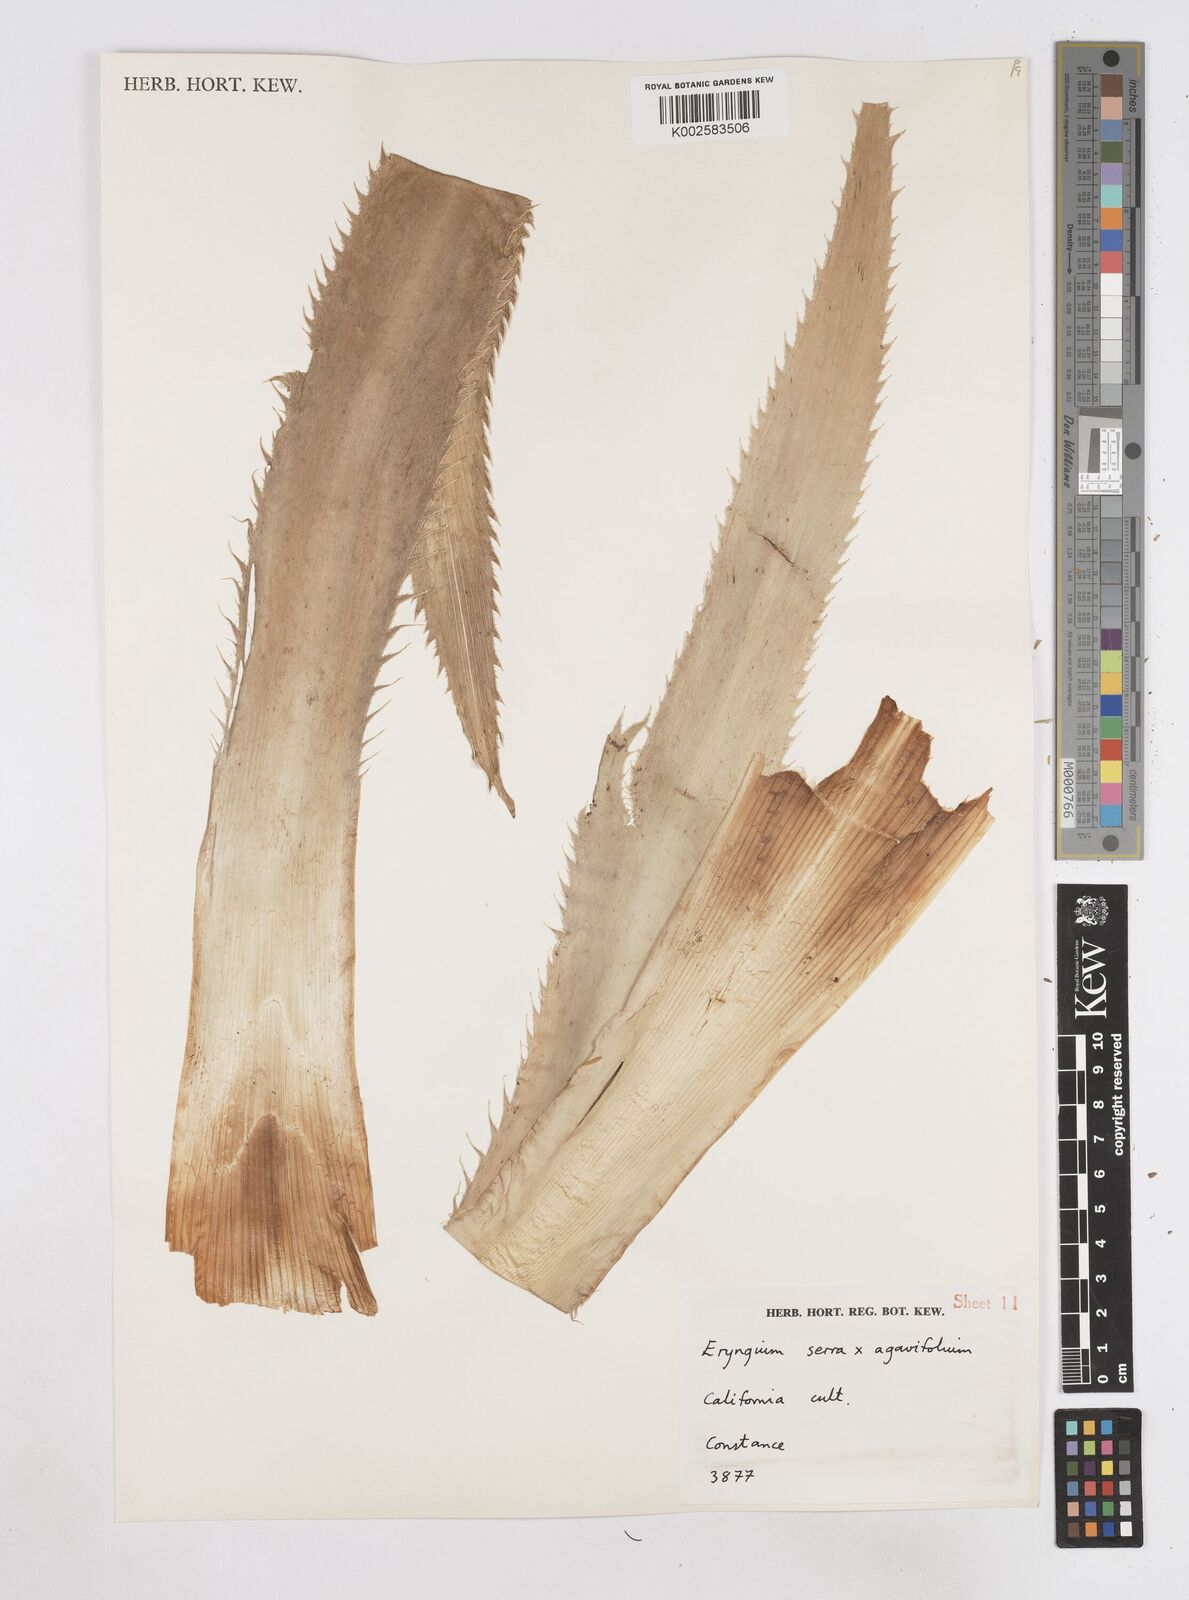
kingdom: Plantae
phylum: Tracheophyta
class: Magnoliopsida
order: Apiales
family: Apiaceae
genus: Eryngium
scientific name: Eryngium agavifolium
